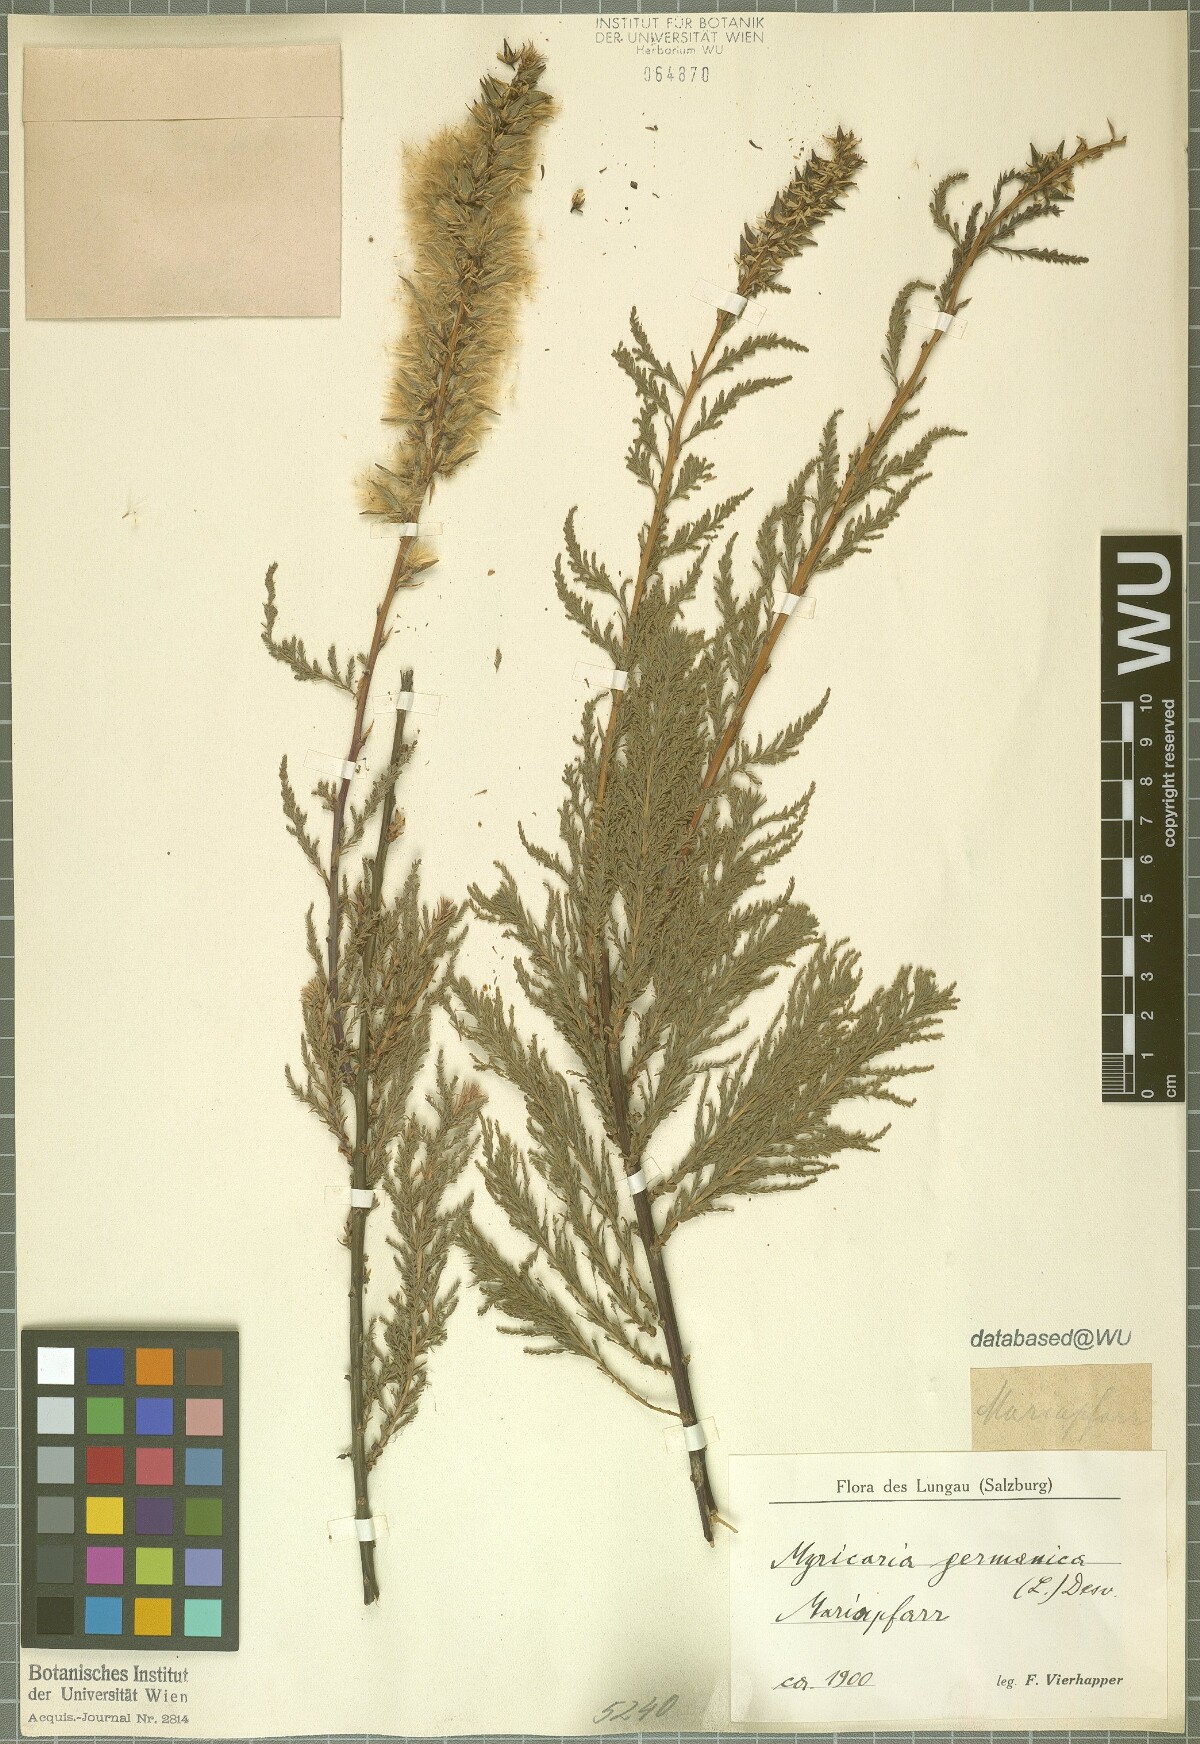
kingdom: Plantae
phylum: Tracheophyta
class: Magnoliopsida
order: Caryophyllales
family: Tamaricaceae
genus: Myricaria
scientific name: Myricaria germanica
